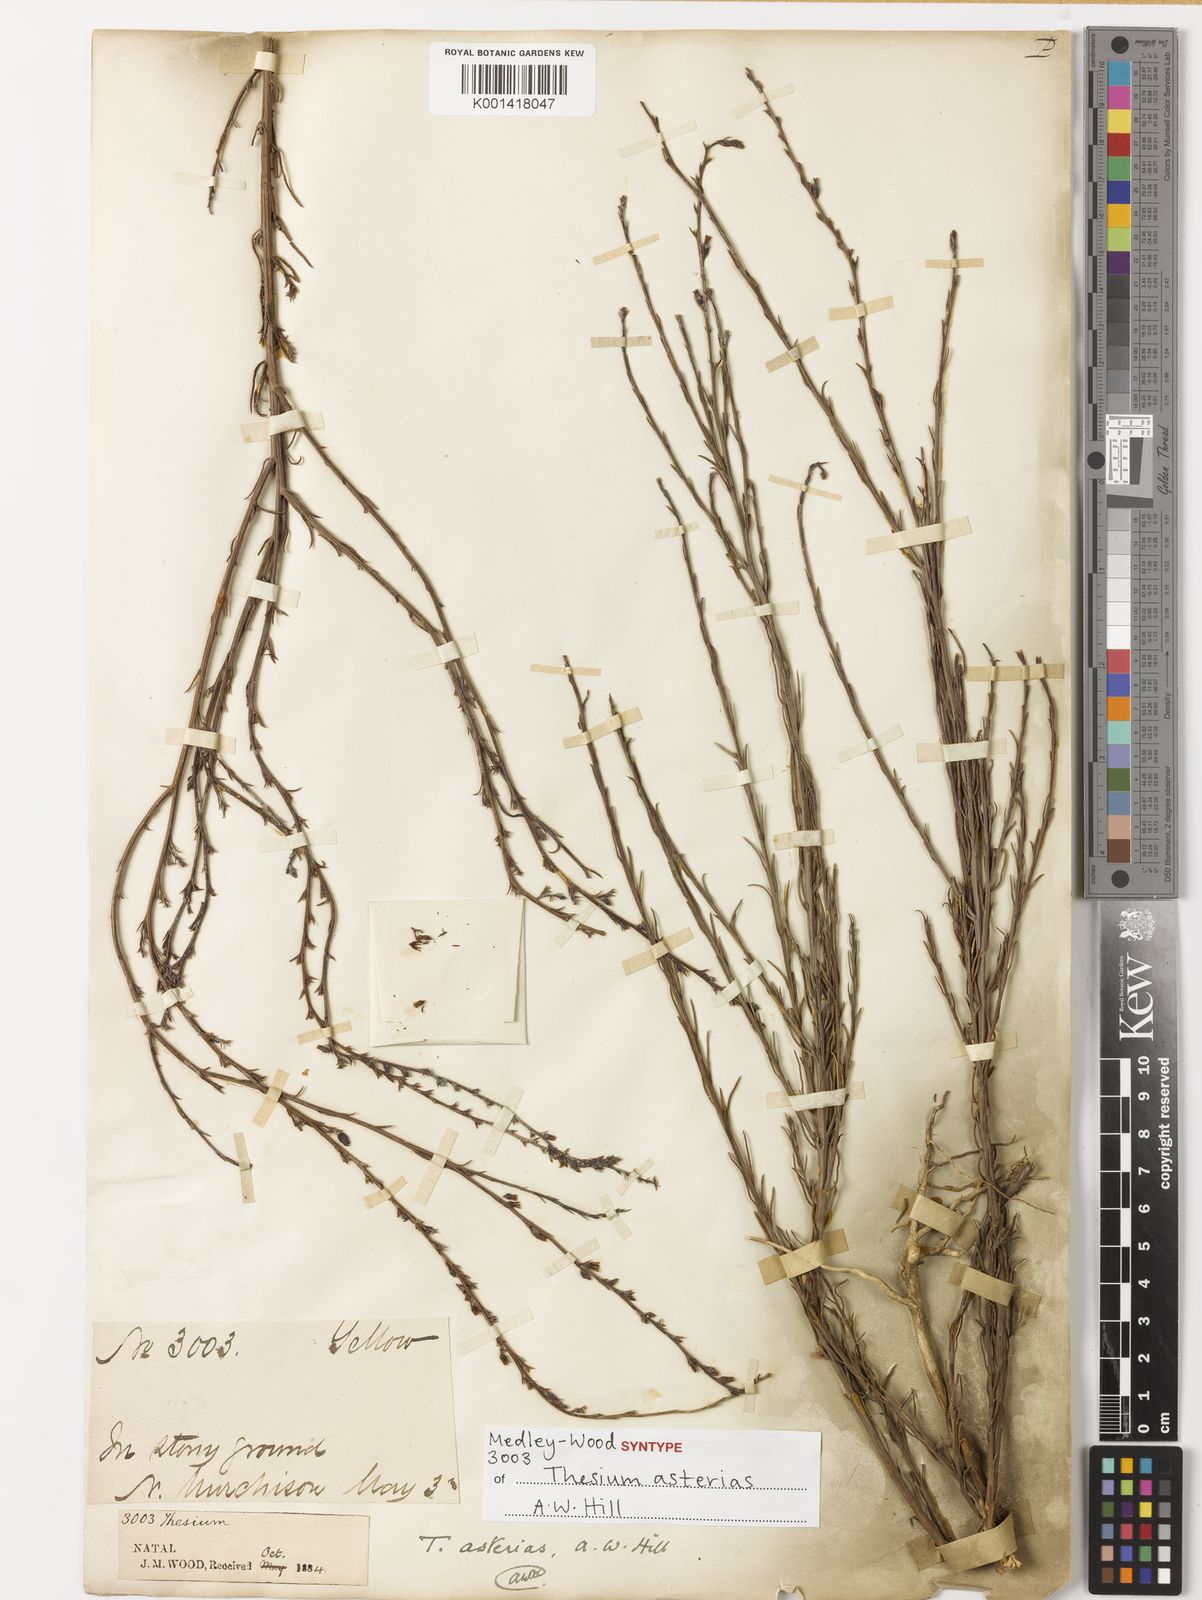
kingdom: Plantae
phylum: Tracheophyta
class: Magnoliopsida
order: Santalales
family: Thesiaceae
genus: Thesium
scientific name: Thesium asterias
